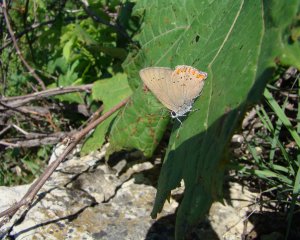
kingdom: Animalia
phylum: Arthropoda
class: Insecta
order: Lepidoptera
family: Lycaenidae
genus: Harkenclenus
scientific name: Harkenclenus titus
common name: Coral Hairstreak
